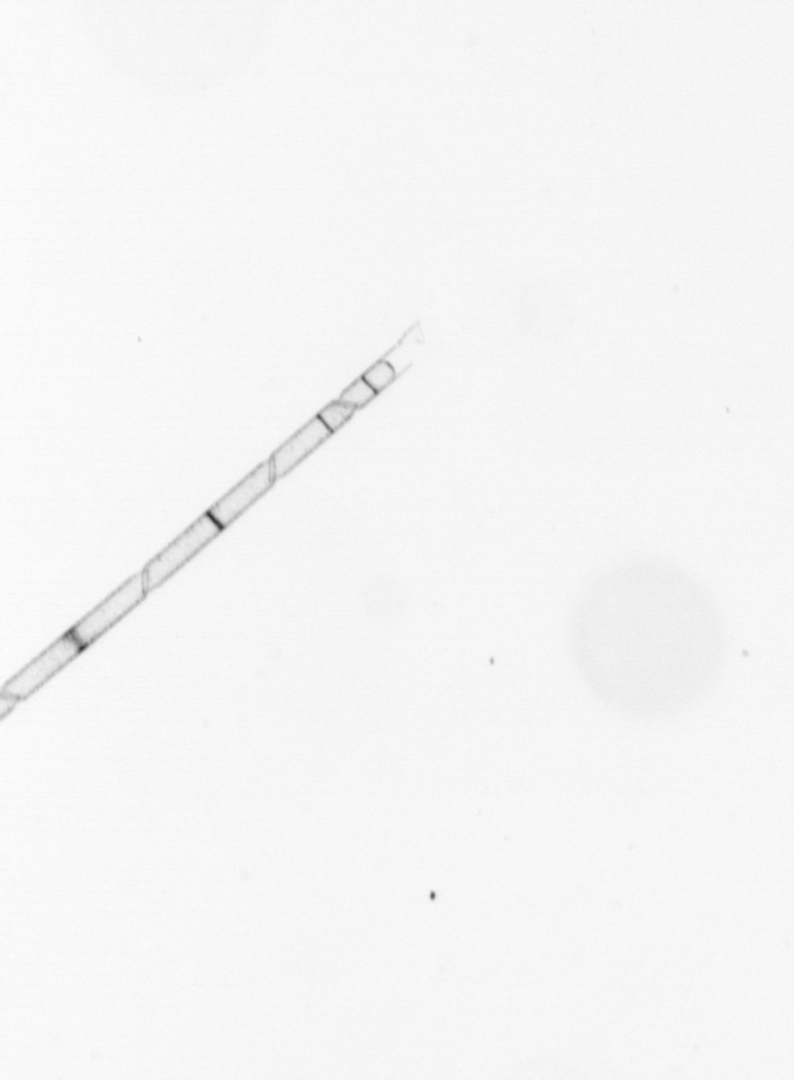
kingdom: Chromista
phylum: Ochrophyta
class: Bacillariophyceae
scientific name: Bacillariophyceae
